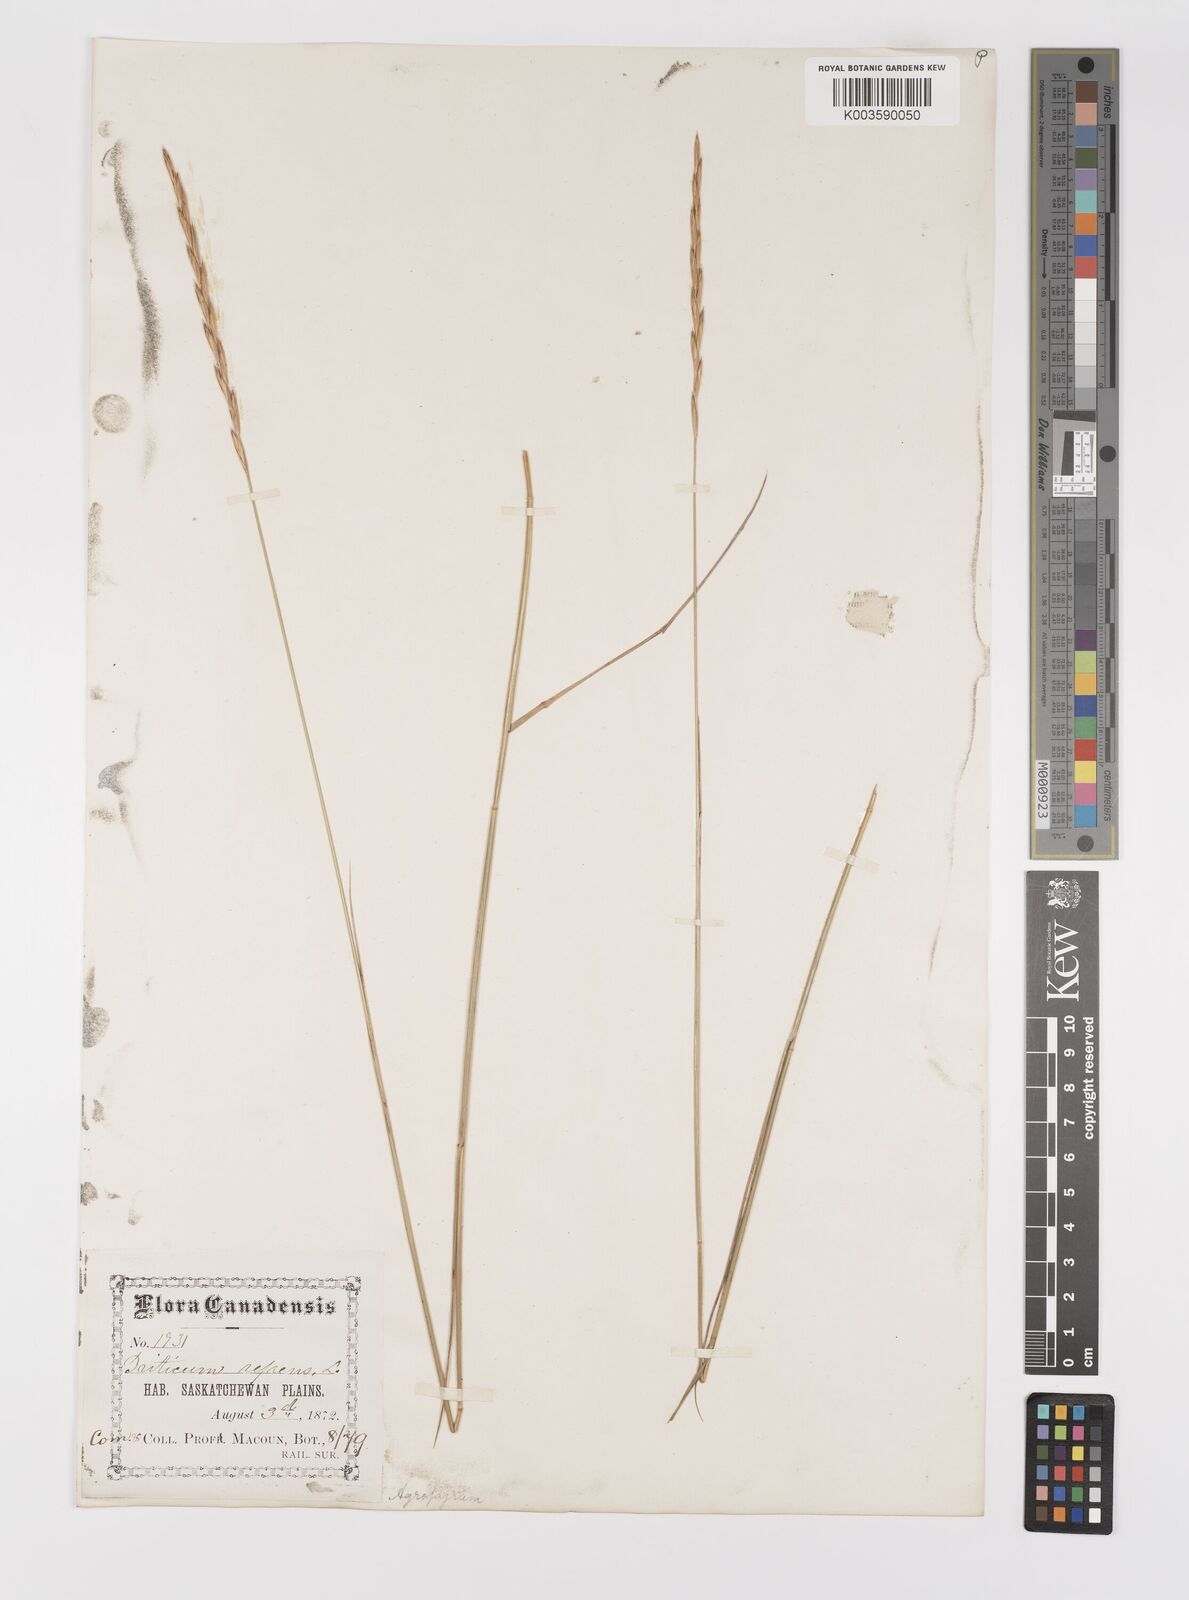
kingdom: Plantae
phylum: Tracheophyta
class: Liliopsida
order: Poales
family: Poaceae
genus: Elymus
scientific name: Elymus repens
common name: Quackgrass
